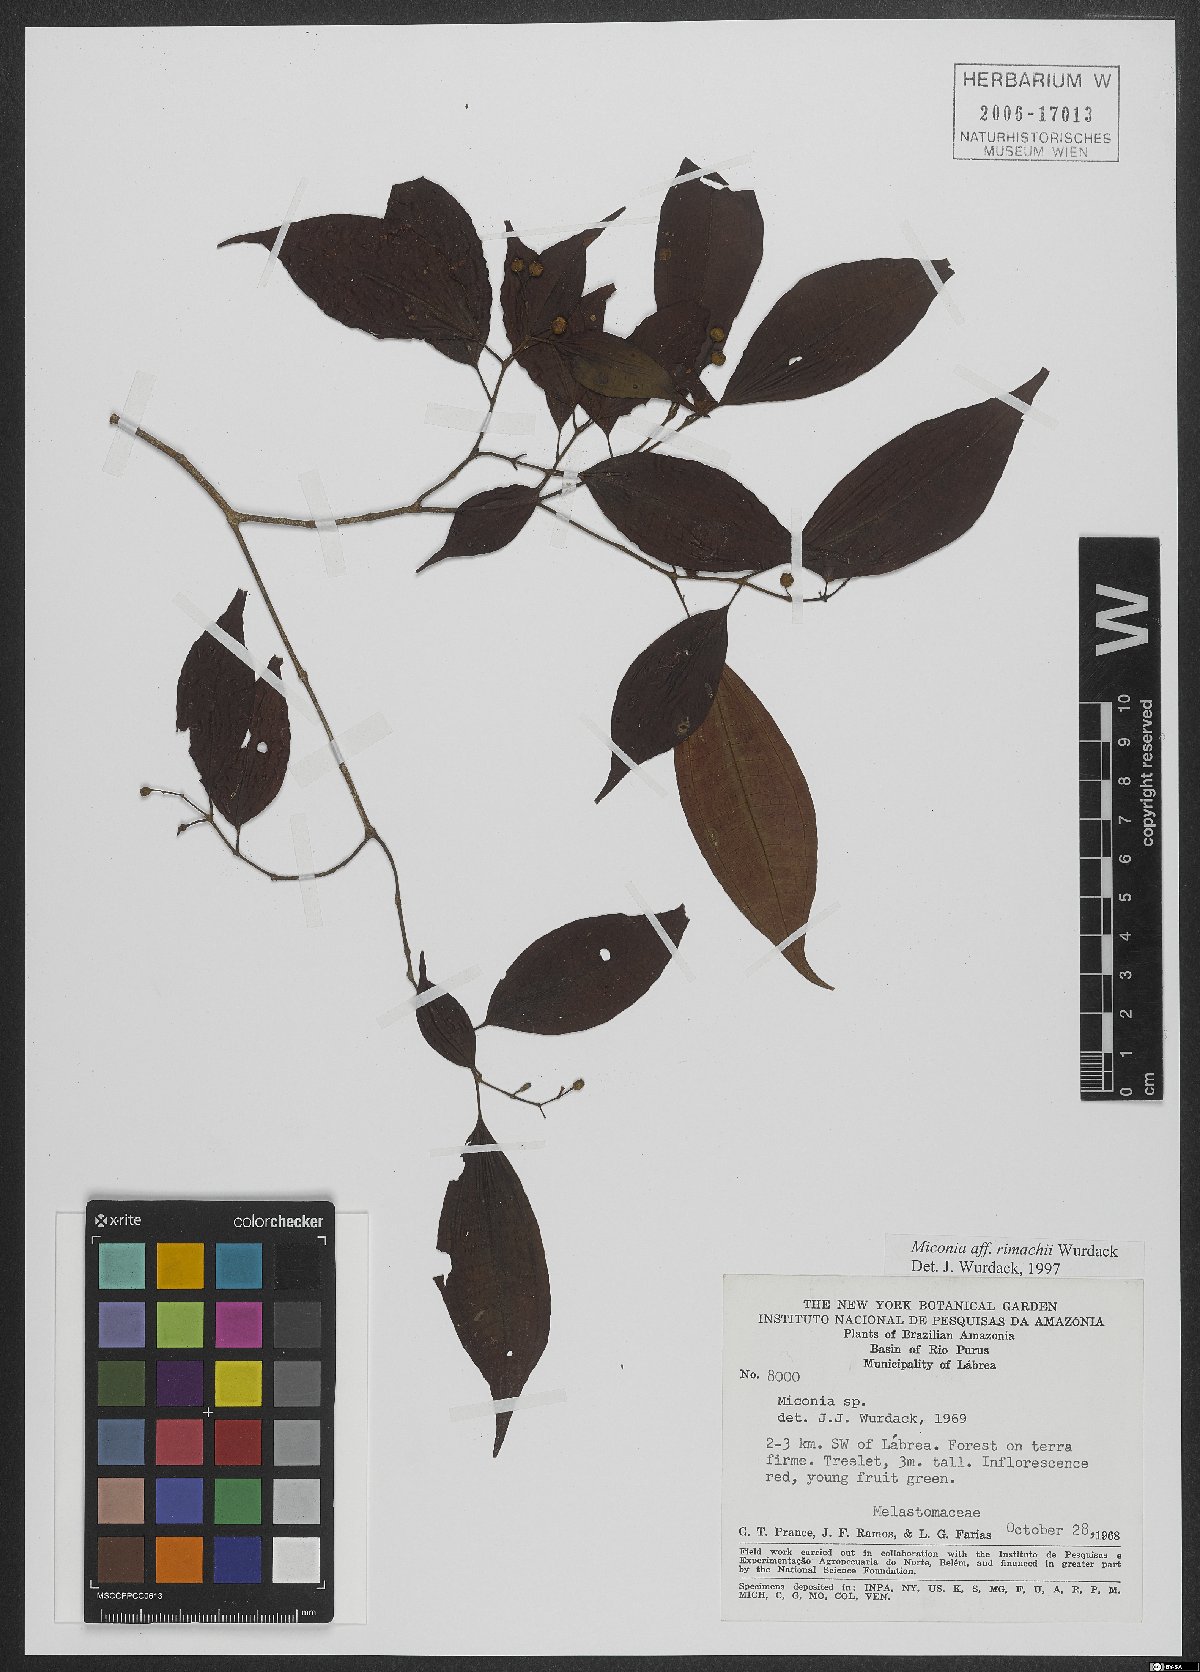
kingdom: Plantae
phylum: Tracheophyta
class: Magnoliopsida
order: Myrtales
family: Melastomataceae
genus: Miconia
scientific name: Miconia rimachii
